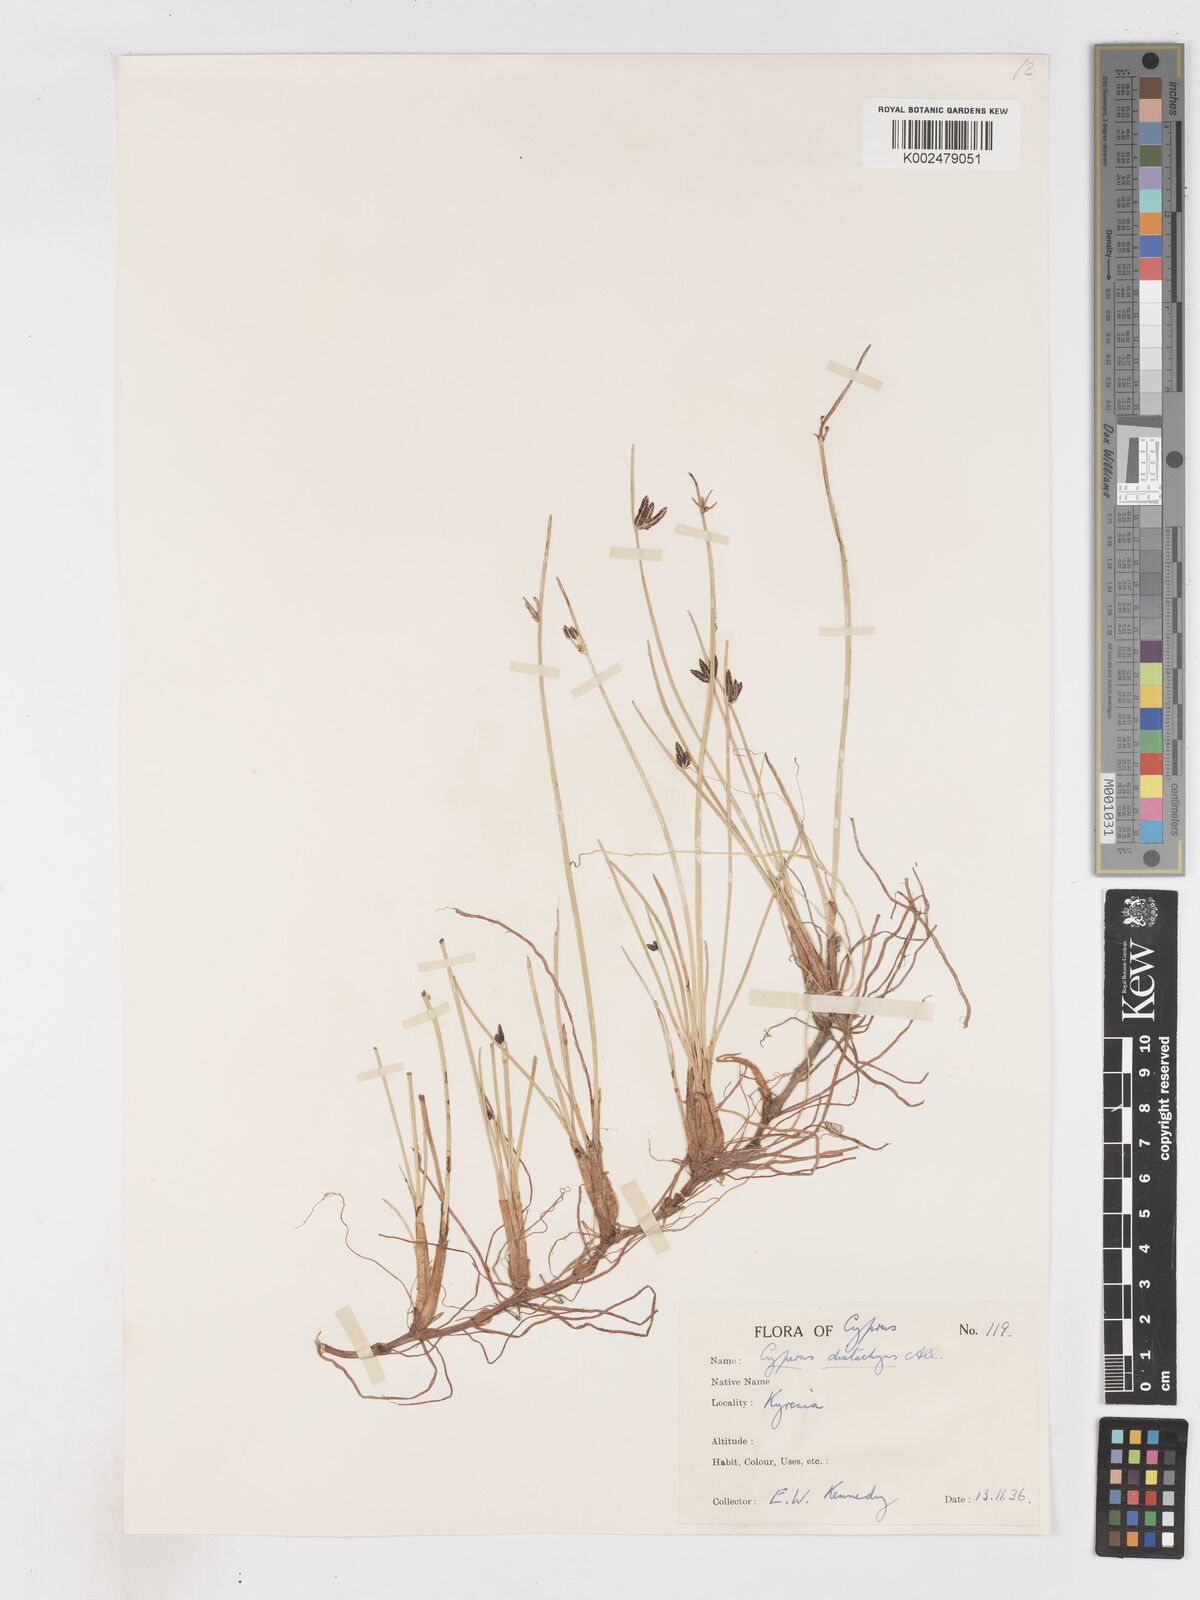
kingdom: Plantae
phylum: Tracheophyta
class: Liliopsida
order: Poales
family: Cyperaceae
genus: Cyperus
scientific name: Cyperus laevigatus
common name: Smooth flat sedge
